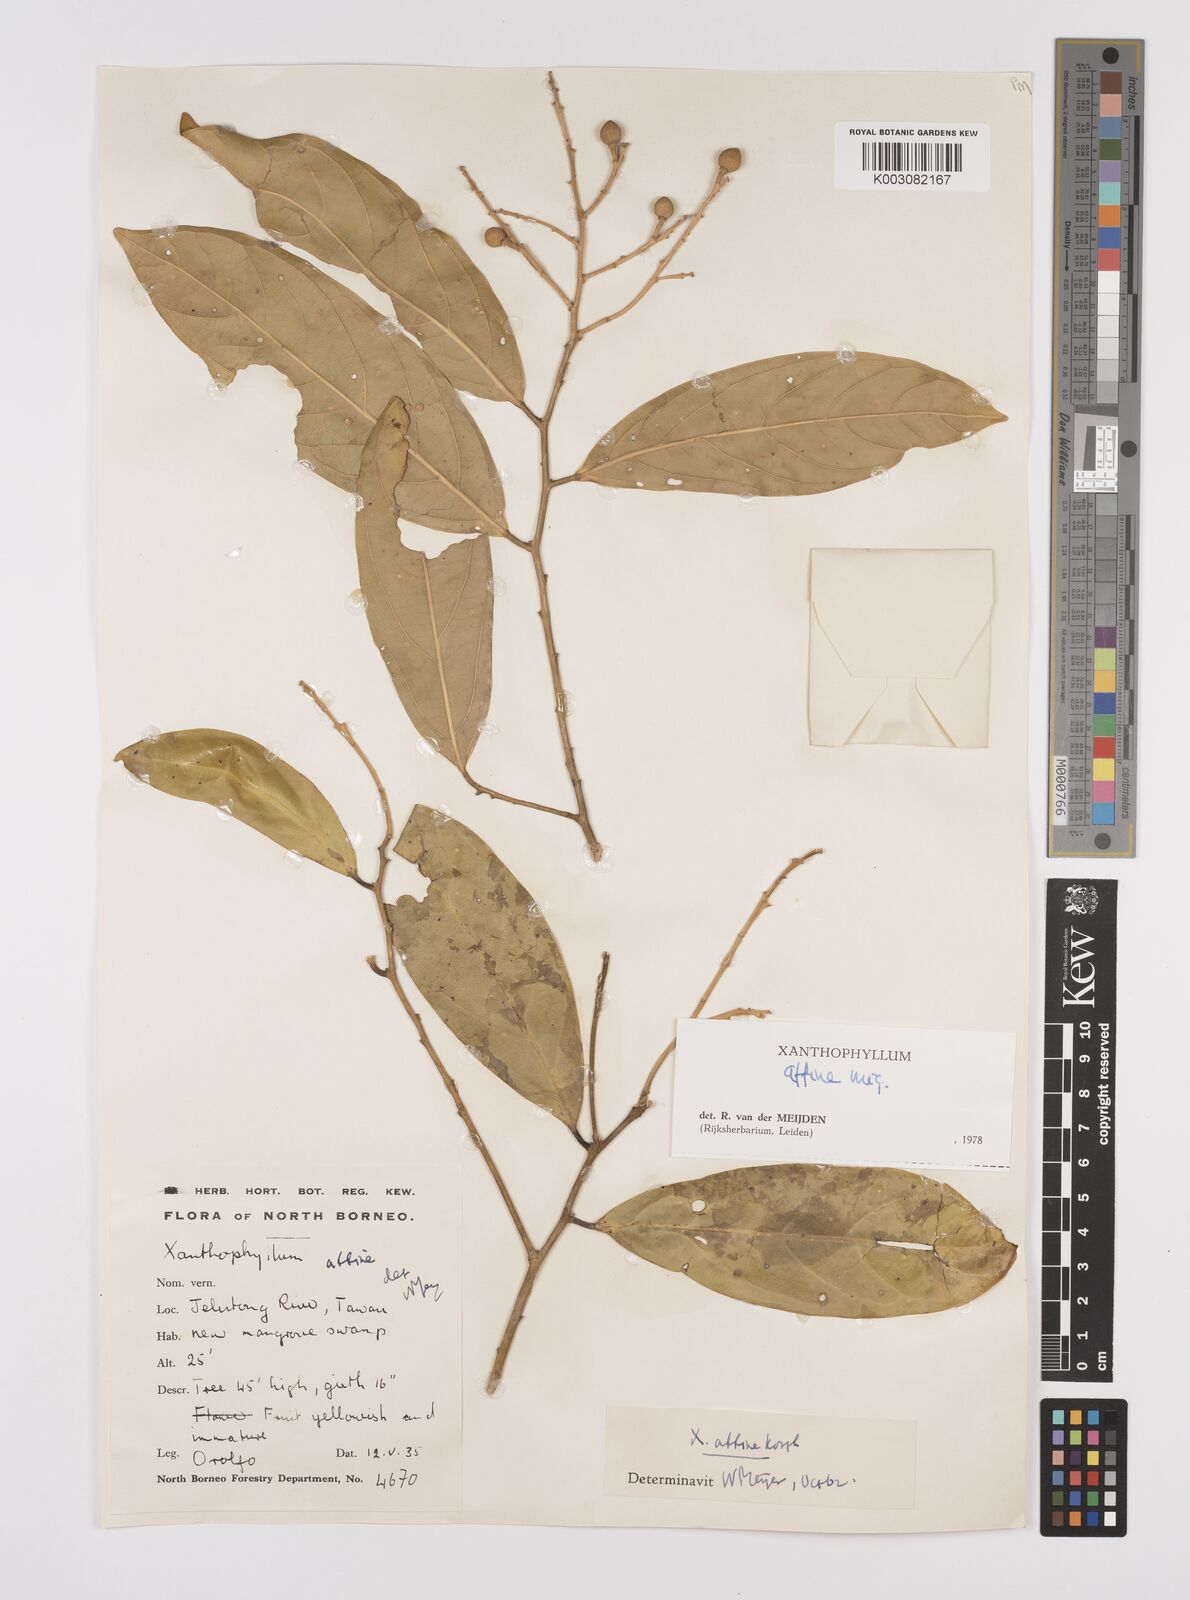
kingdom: Plantae
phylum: Tracheophyta
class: Magnoliopsida
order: Fabales
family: Polygalaceae
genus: Xanthophyllum
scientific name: Xanthophyllum flavescens
